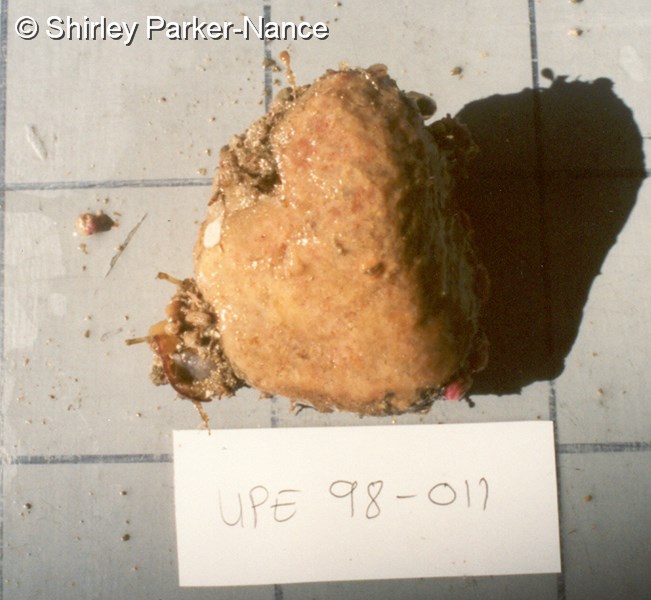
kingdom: Animalia
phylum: Chordata
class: Ascidiacea
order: Aplousobranchia
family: Polyclinidae
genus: Aplidium
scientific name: Aplidium
